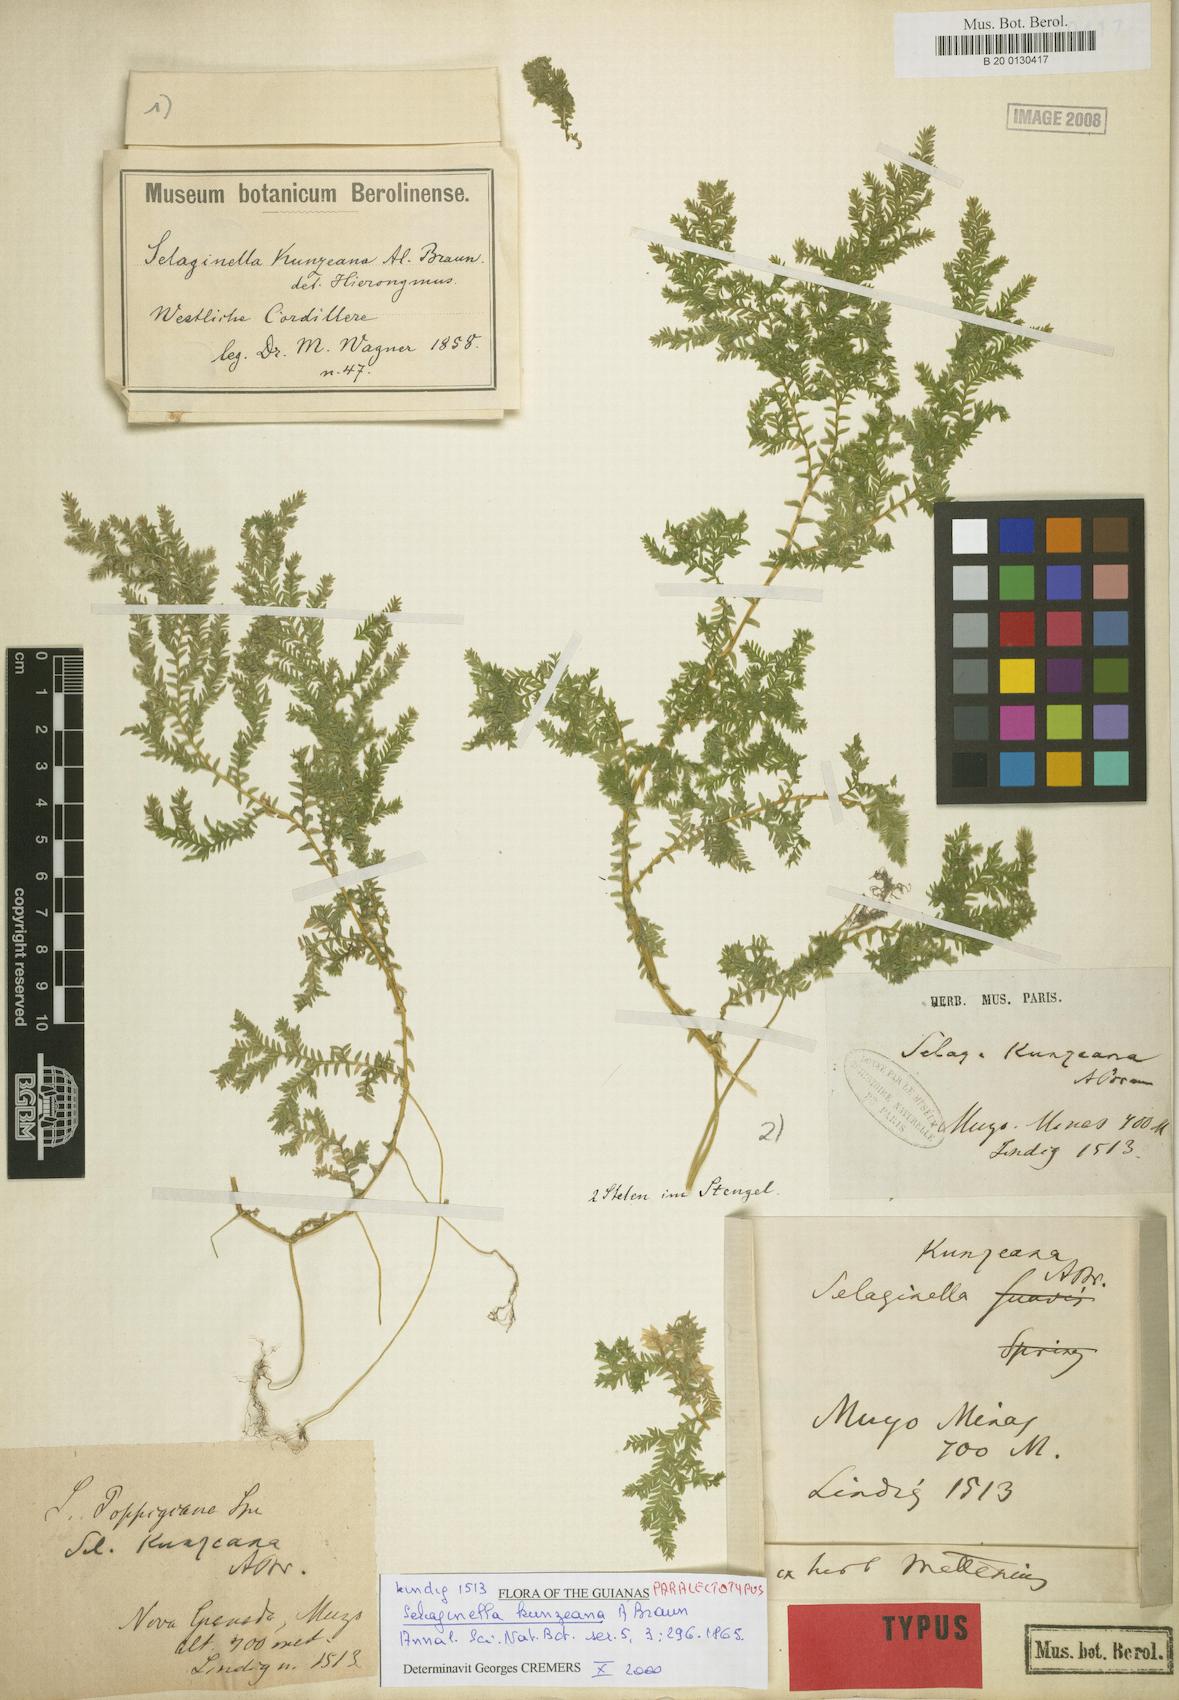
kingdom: Plantae
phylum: Tracheophyta
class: Lycopodiopsida
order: Selaginellales
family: Selaginellaceae
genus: Selaginella
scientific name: Selaginella kunzeana
